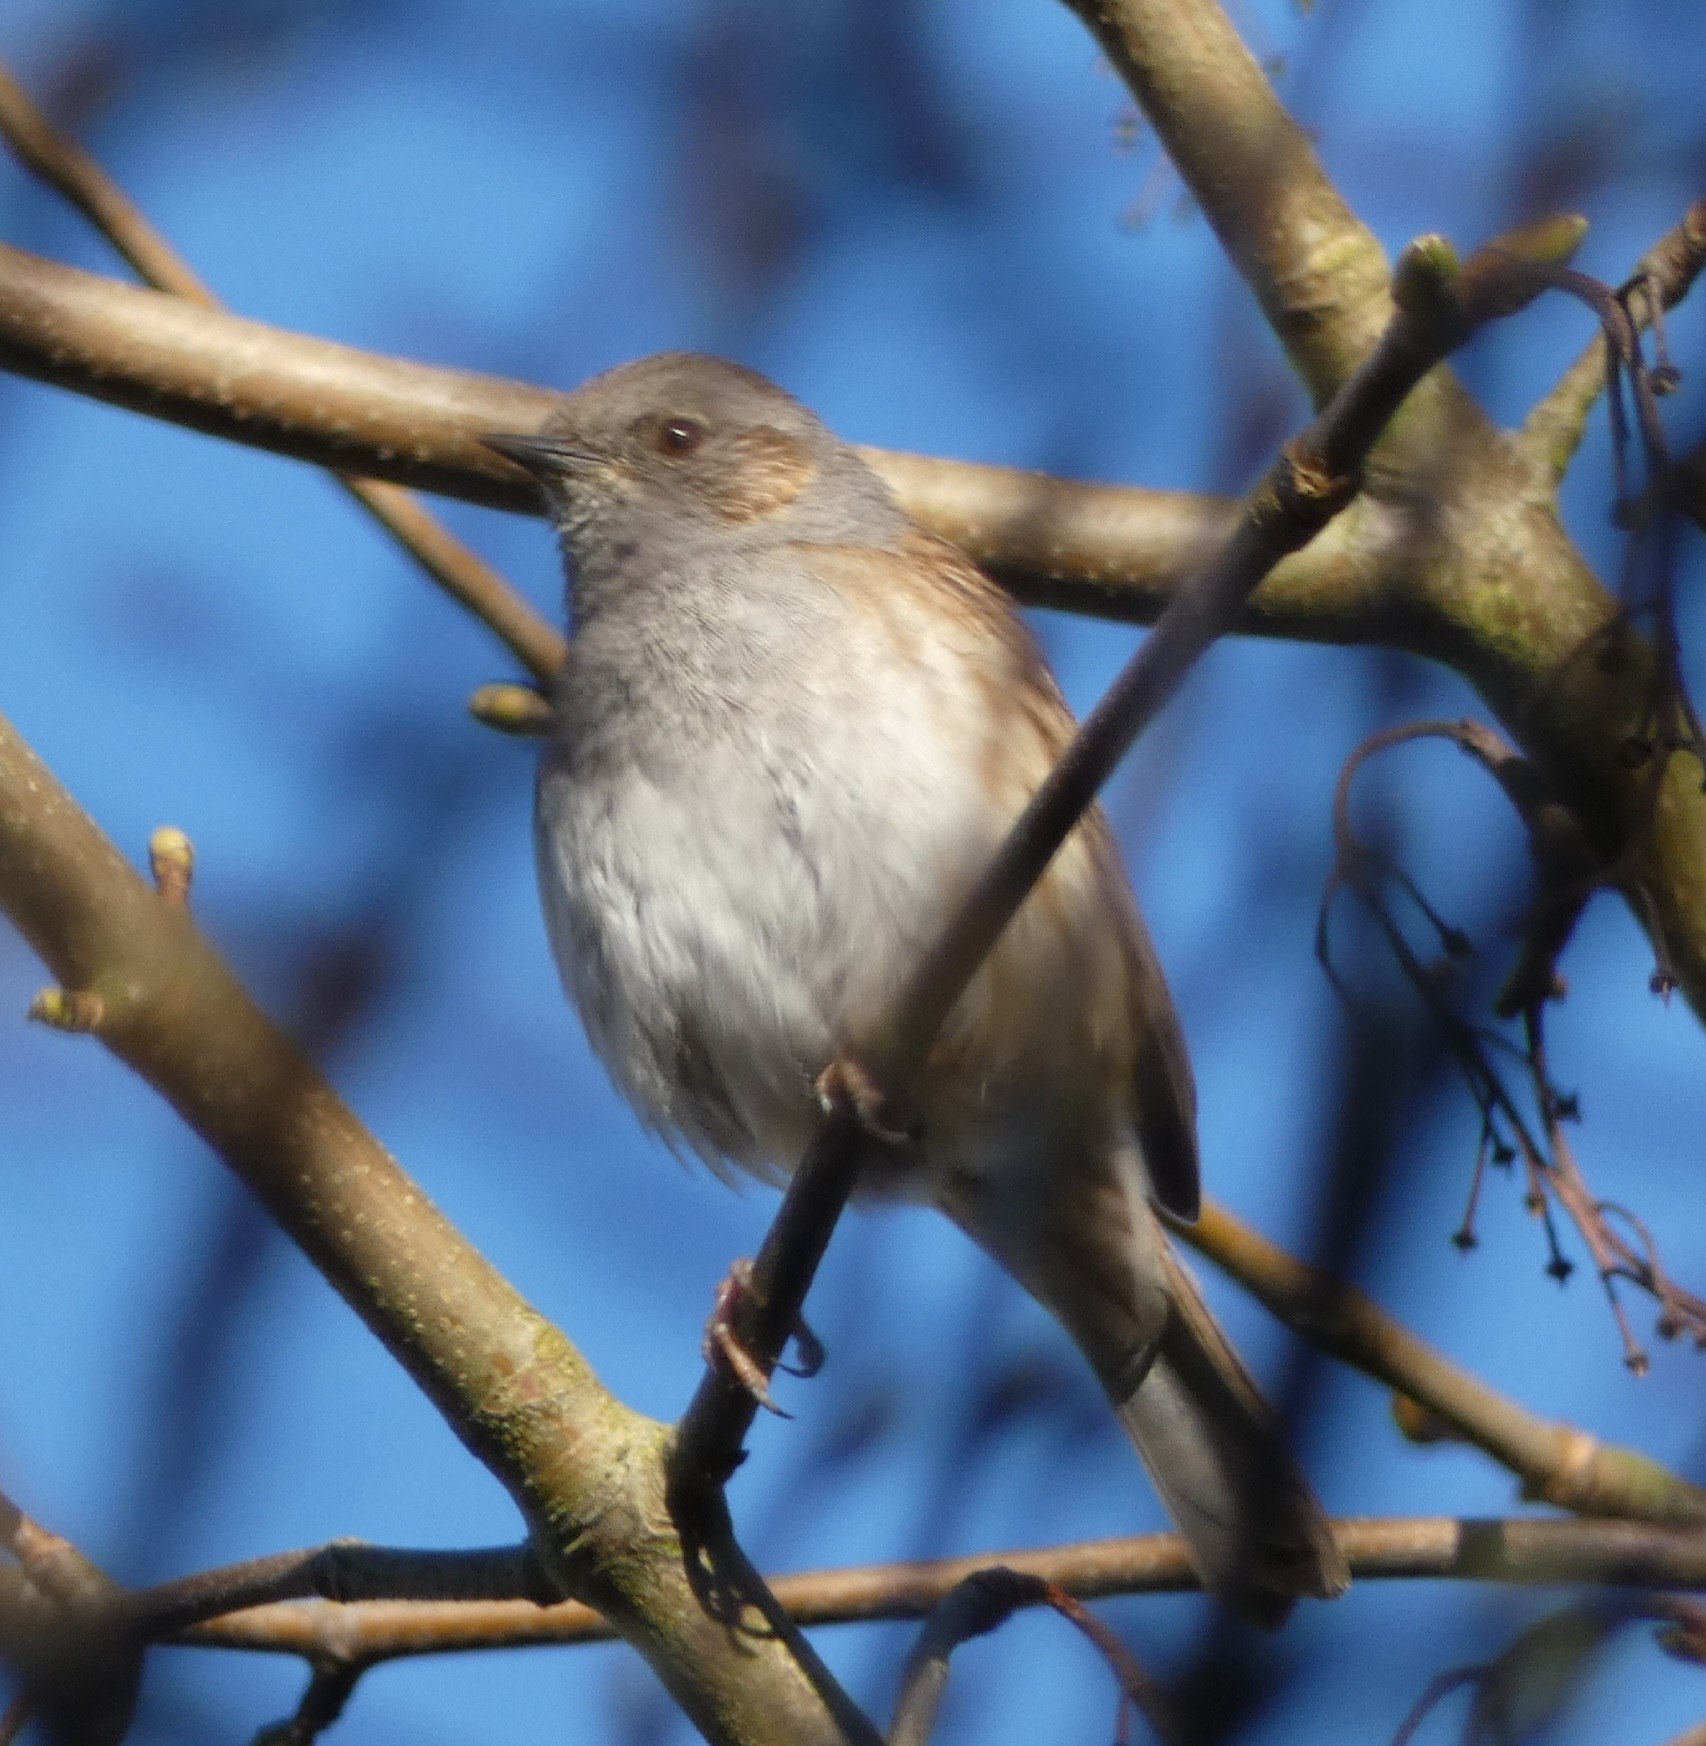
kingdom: Animalia
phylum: Chordata
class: Aves
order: Passeriformes
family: Prunellidae
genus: Prunella
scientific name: Prunella modularis
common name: Jernspurv
